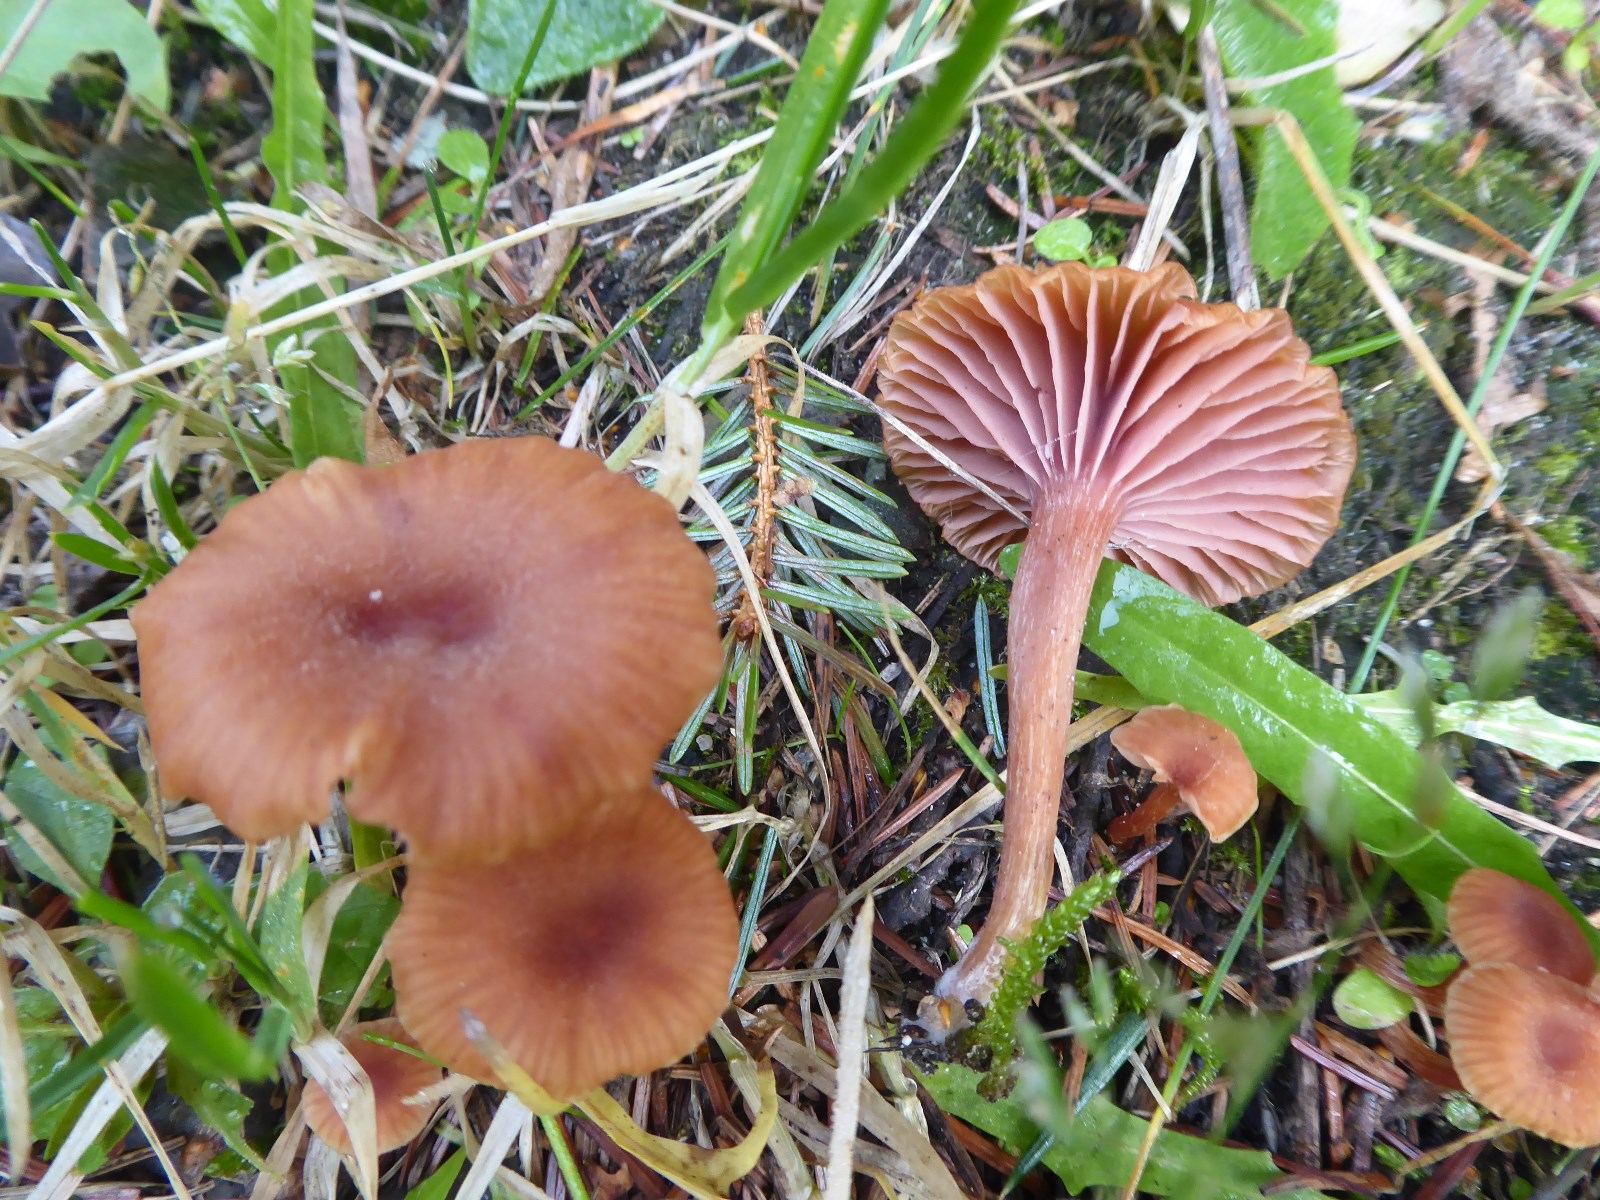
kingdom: Fungi
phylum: Basidiomycota
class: Agaricomycetes
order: Agaricales
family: Hydnangiaceae
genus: Laccaria
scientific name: Laccaria bicolor
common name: tvefarvet ametysthat
